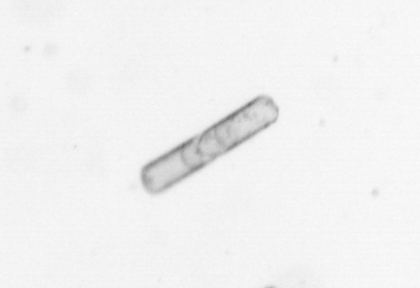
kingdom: Chromista
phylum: Ochrophyta
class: Bacillariophyceae
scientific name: Bacillariophyceae
